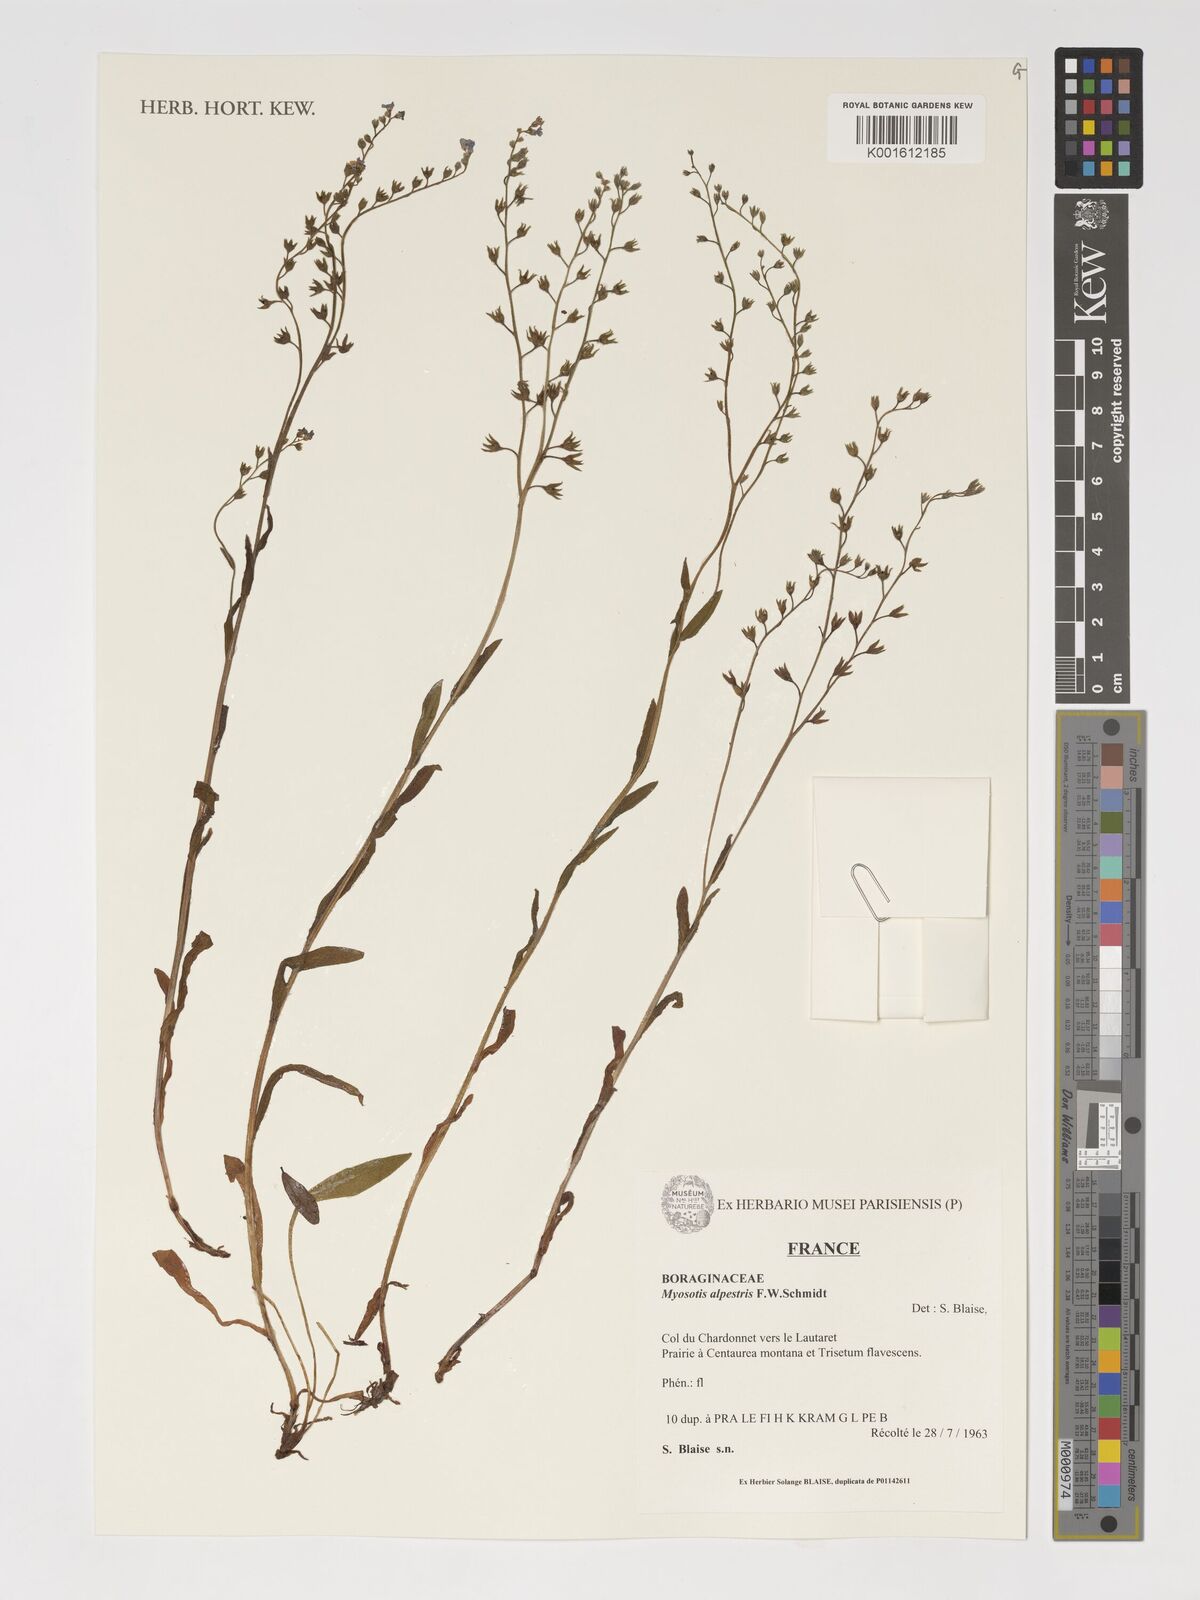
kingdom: Plantae
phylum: Tracheophyta
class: Magnoliopsida
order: Boraginales
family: Boraginaceae
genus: Myosotis
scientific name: Myosotis alpestris
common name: Alpine forget-me-not
